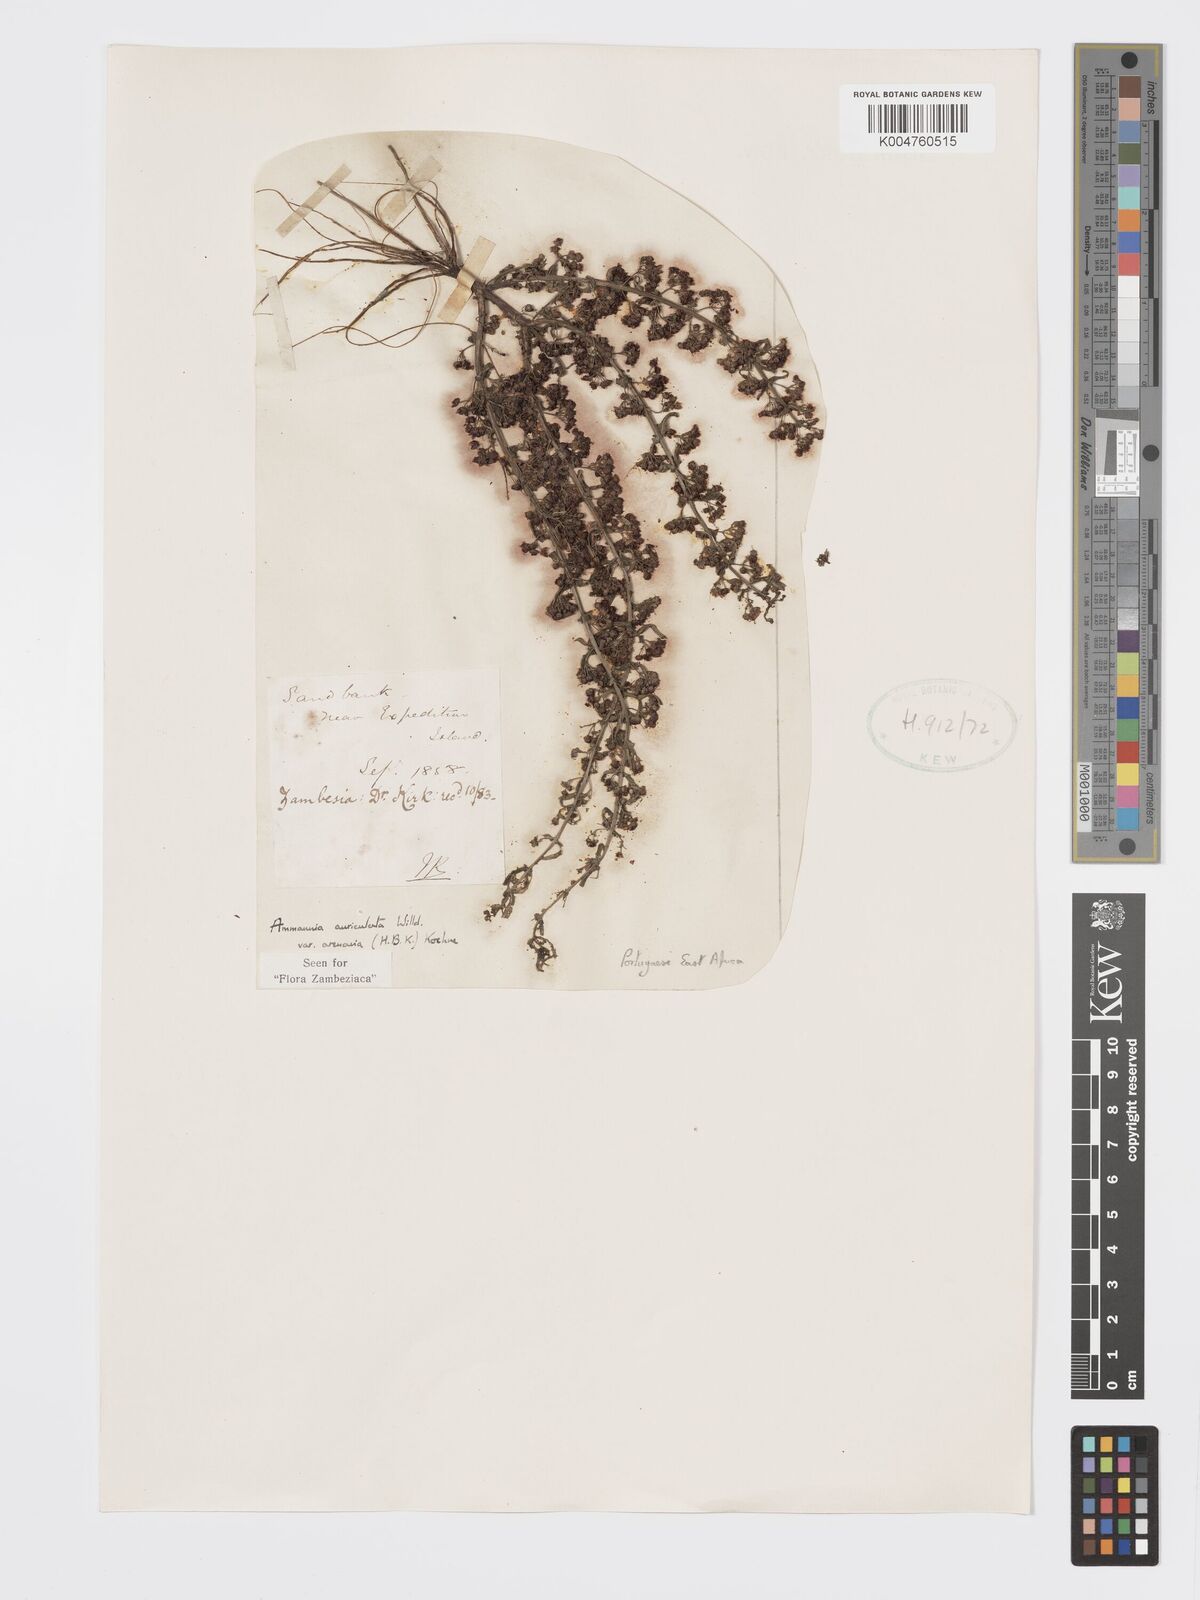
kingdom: Plantae
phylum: Tracheophyta
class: Magnoliopsida
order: Myrtales
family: Lythraceae
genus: Ammannia
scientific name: Ammannia auriculata
